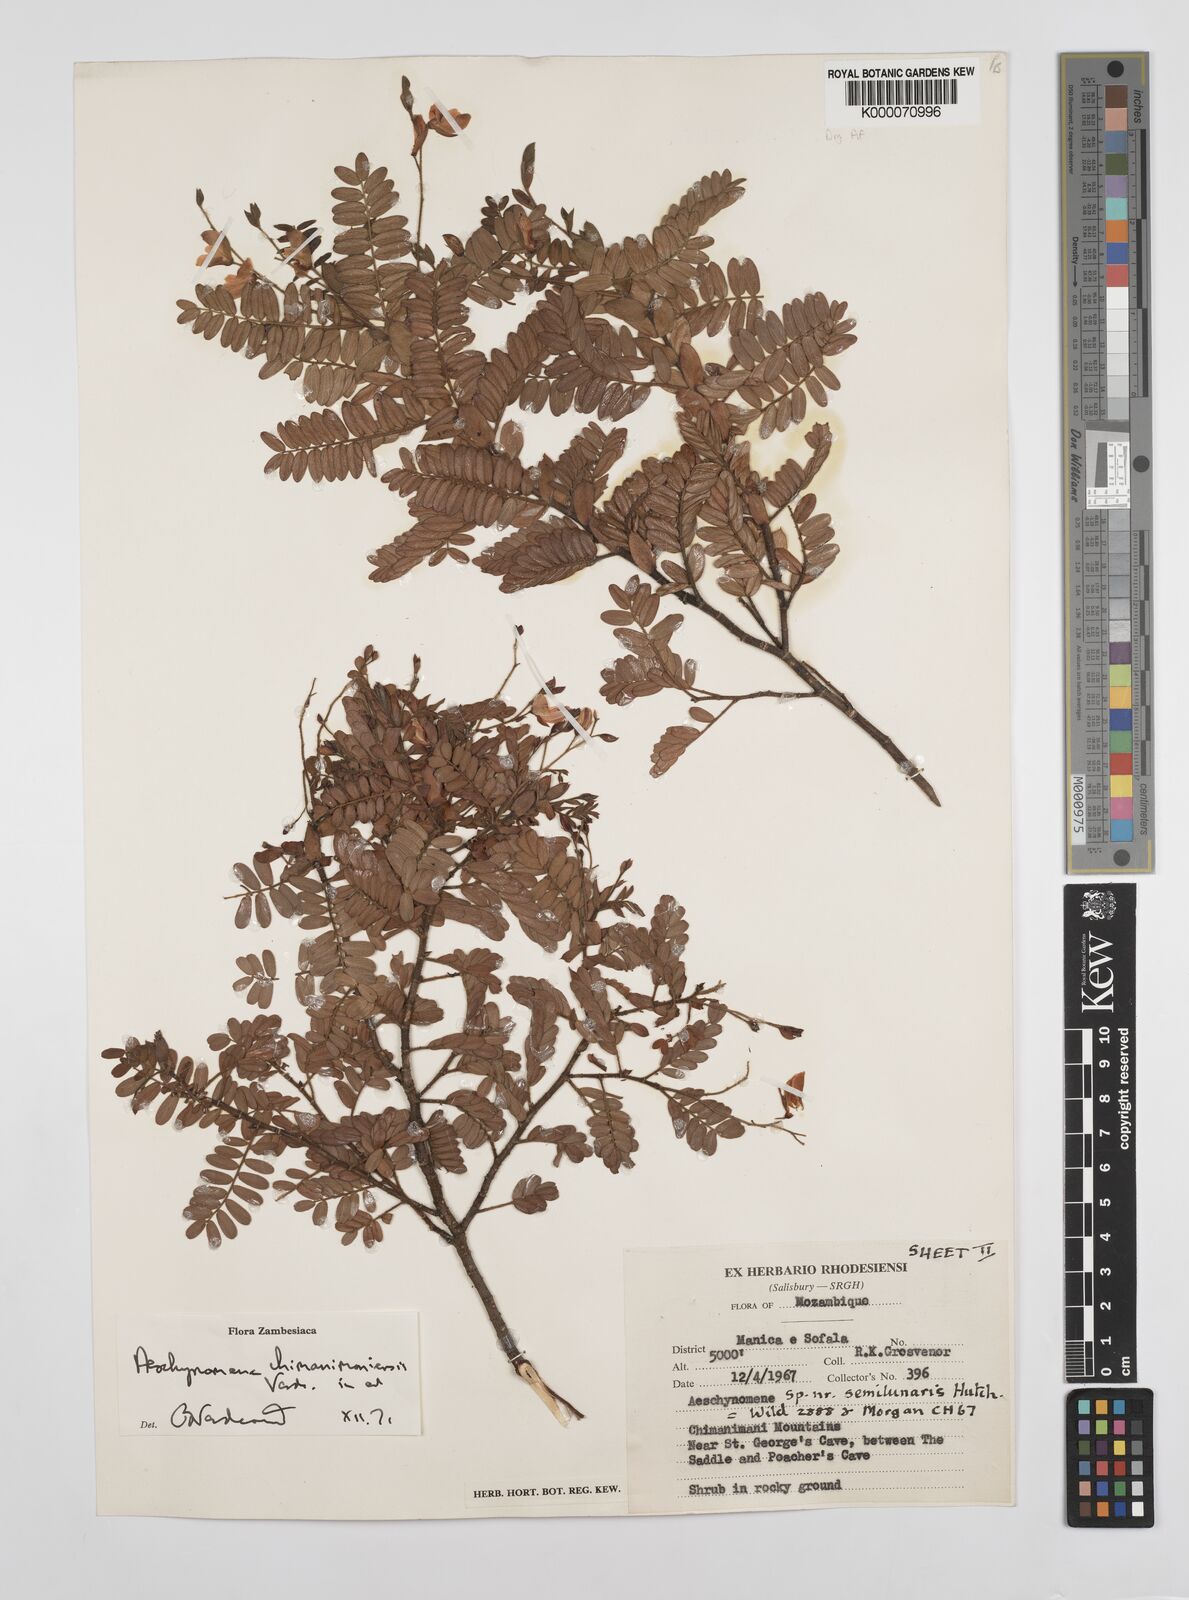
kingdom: Plantae
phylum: Tracheophyta
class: Magnoliopsida
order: Fabales
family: Fabaceae
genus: Aeschynomene
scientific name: Aeschynomene chimanimaniensis
